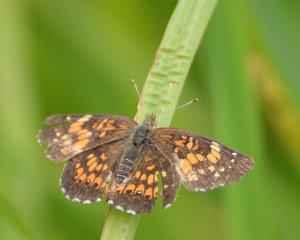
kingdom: Animalia
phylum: Arthropoda
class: Insecta
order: Lepidoptera
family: Nymphalidae
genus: Chlosyne
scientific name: Chlosyne harrisii
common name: Harris's Checkerspot
